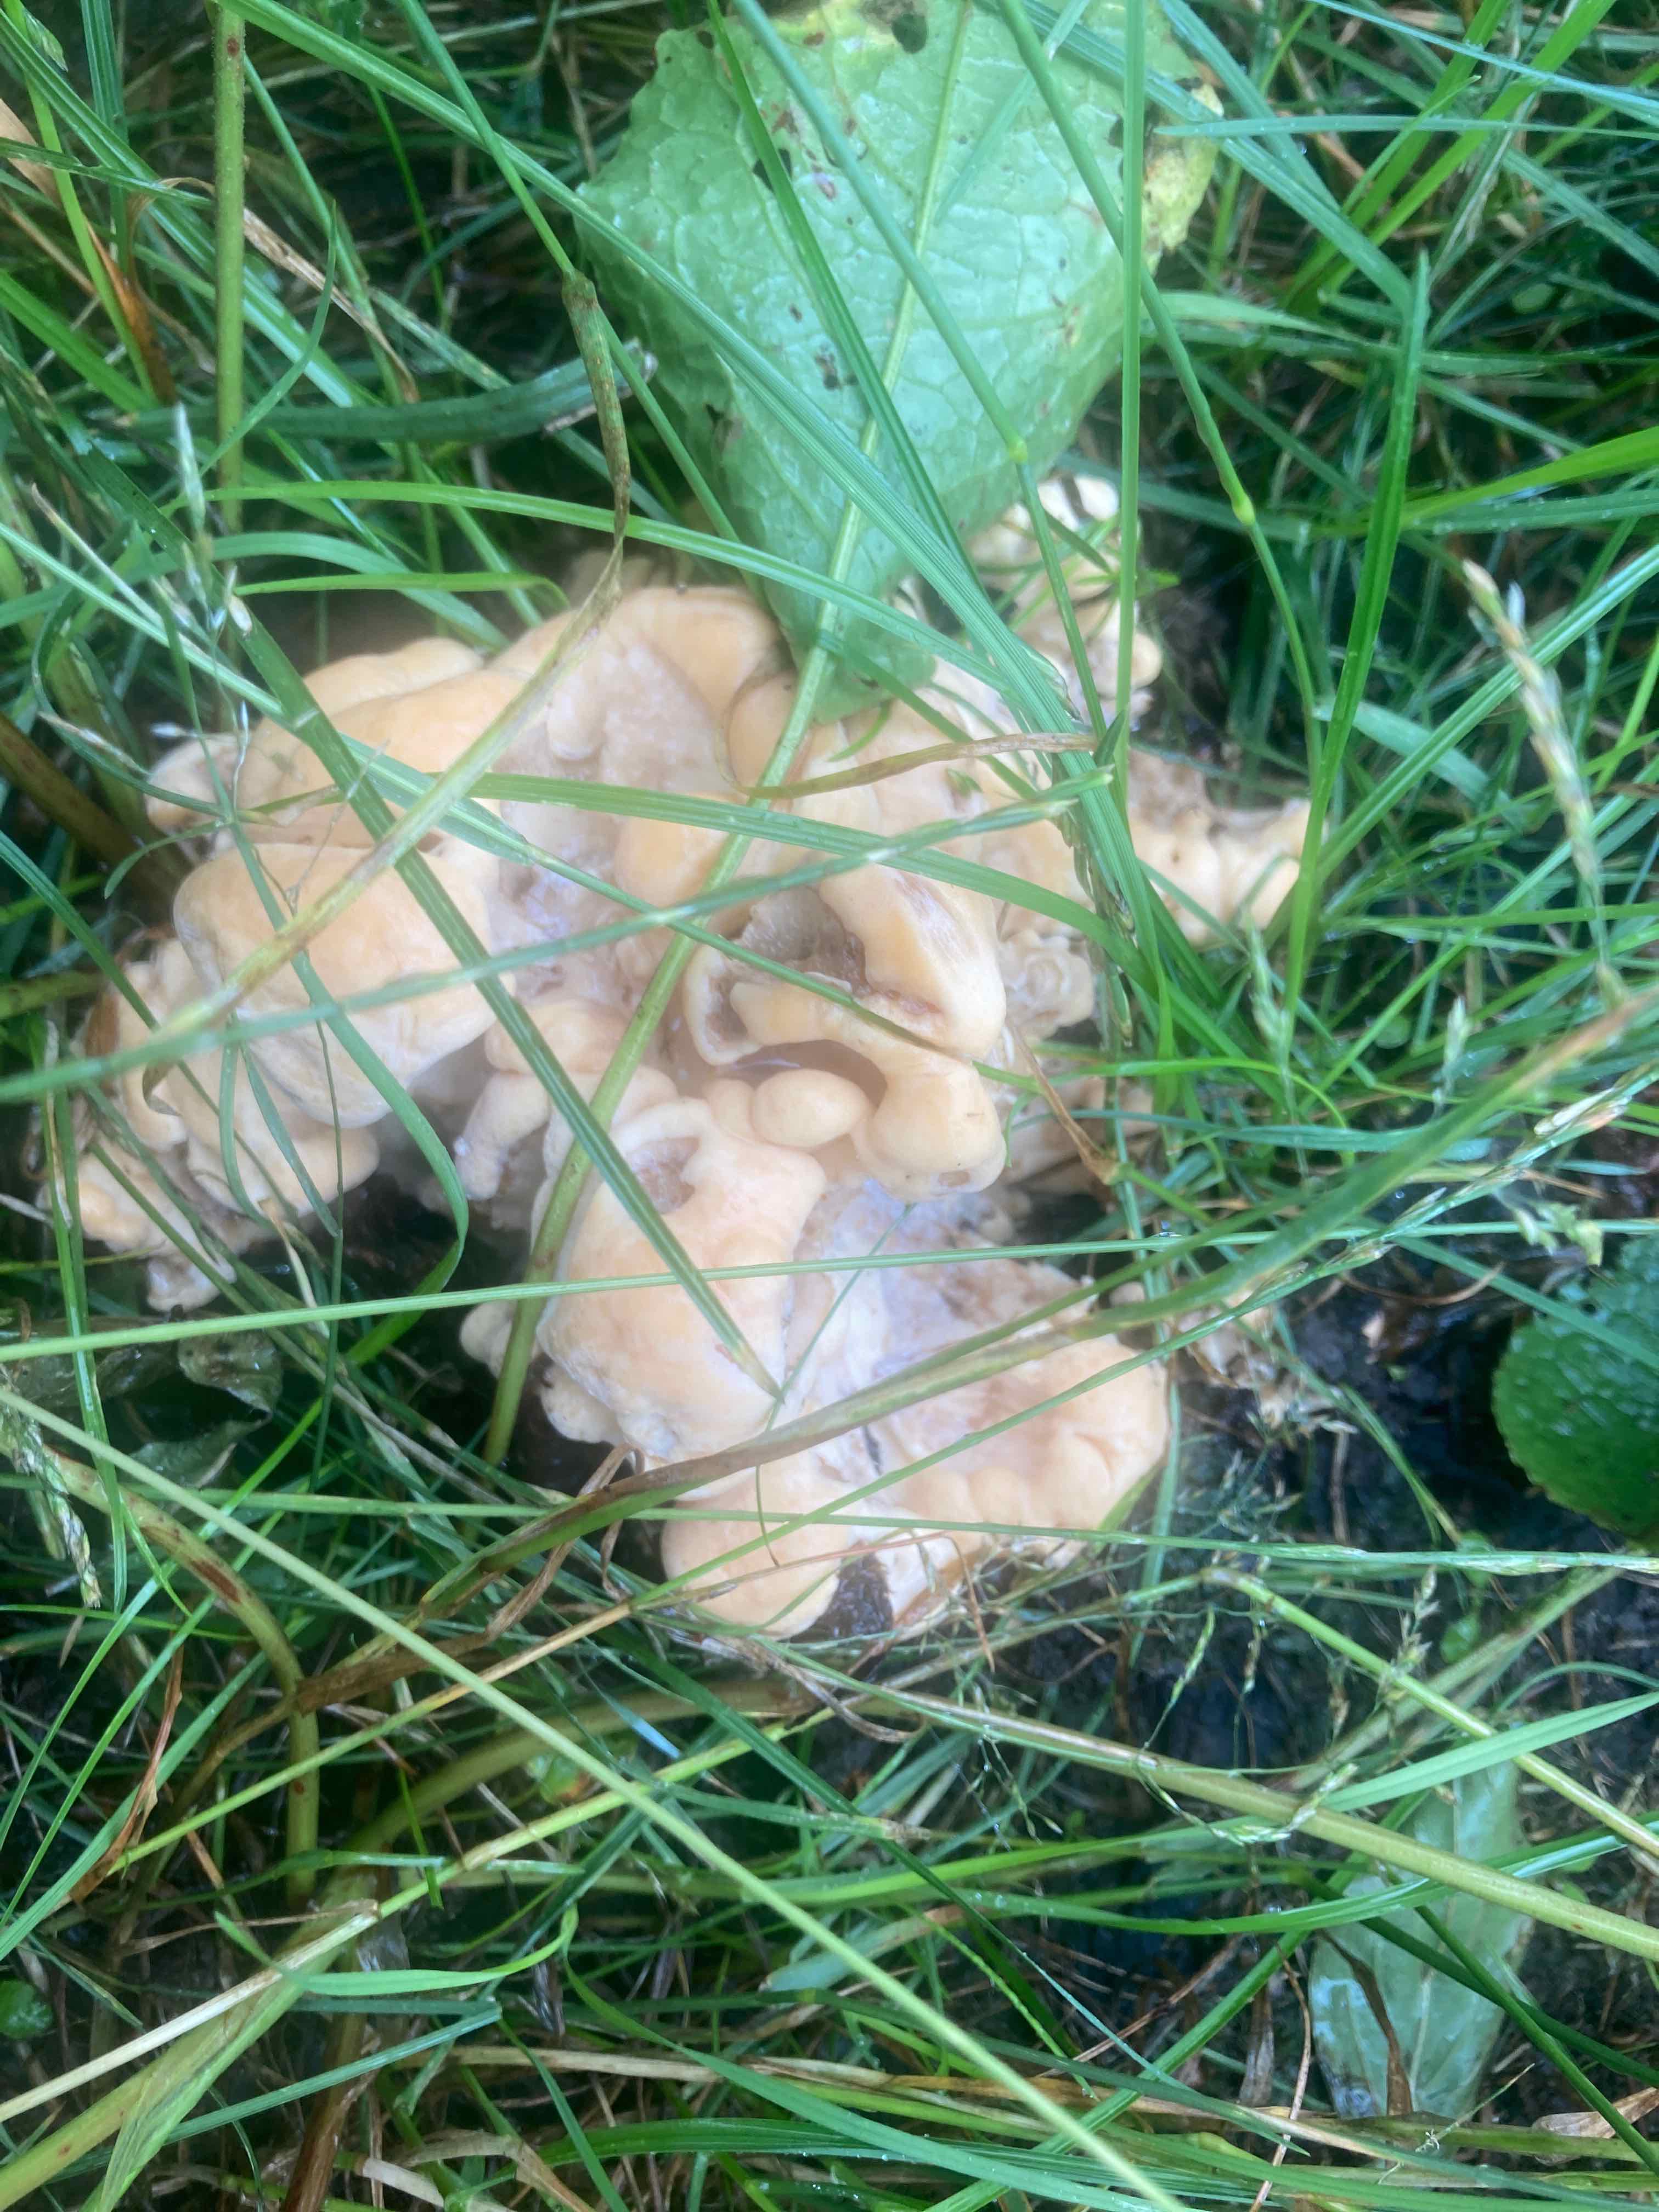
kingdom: Fungi
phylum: Basidiomycota
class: Agaricomycetes
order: Polyporales
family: Meripilaceae
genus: Meripilus
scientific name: Meripilus giganteus
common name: kæmpeporesvamp
